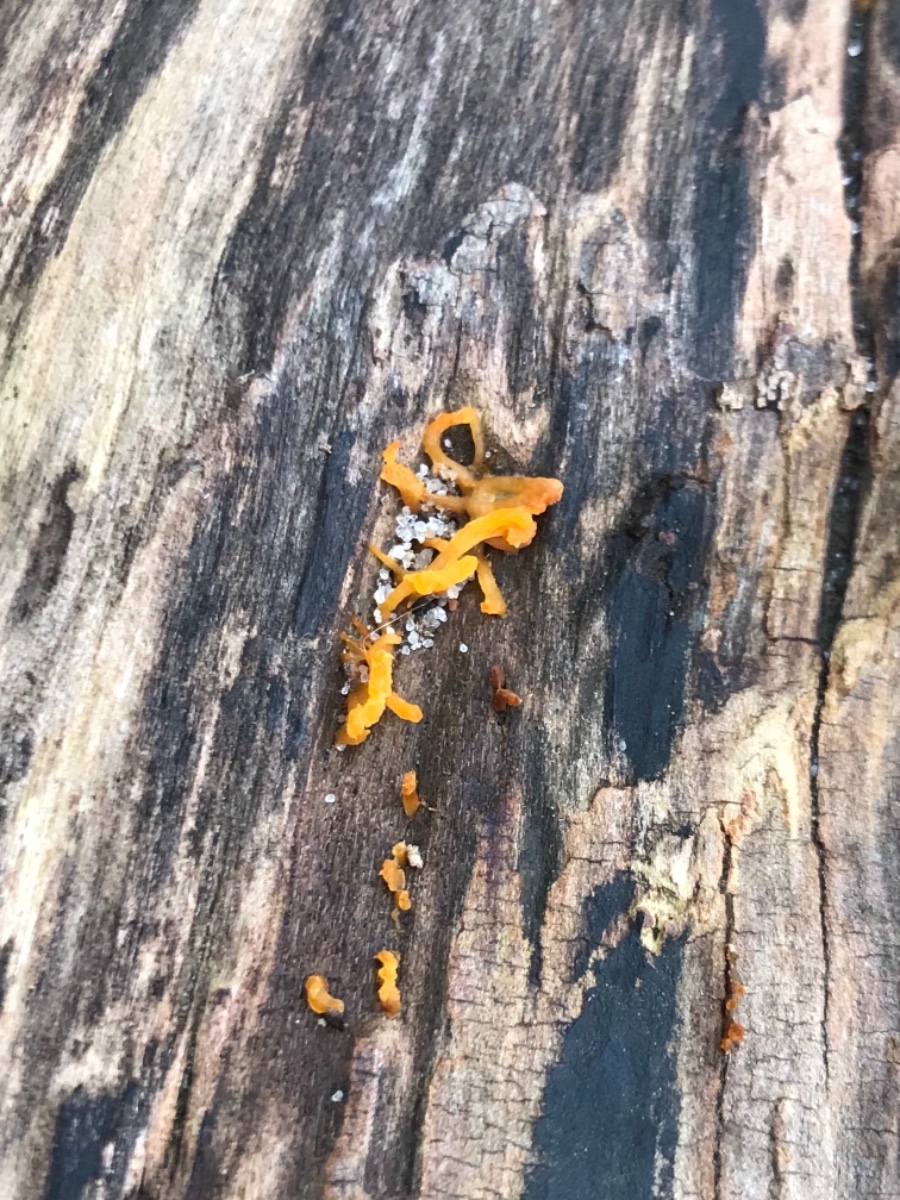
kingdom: Fungi
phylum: Basidiomycota
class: Dacrymycetes
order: Dacrymycetales
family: Dacrymycetaceae
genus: Calocera
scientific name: Calocera cornea
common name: liden guldgaffel
